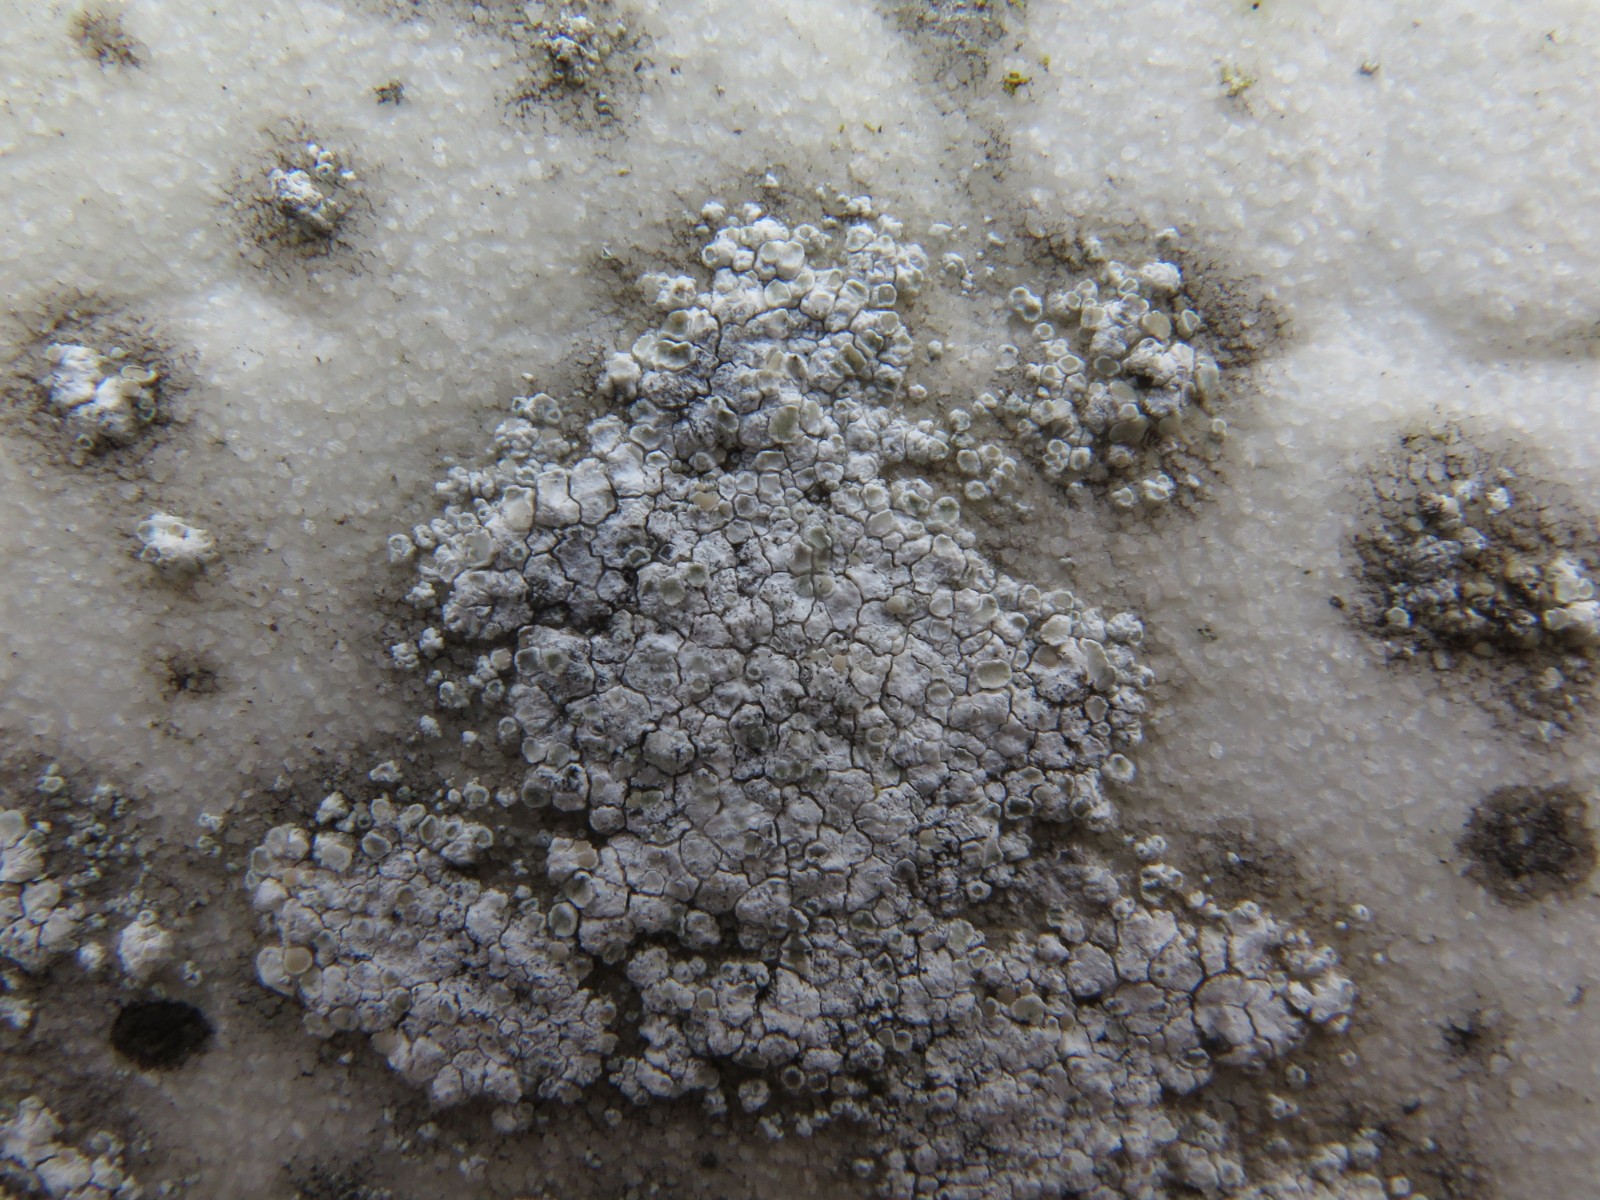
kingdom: Fungi
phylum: Ascomycota
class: Lecanoromycetes
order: Lecanorales
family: Lecanoraceae
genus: Polyozosia
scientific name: Polyozosia albescens
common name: cement-kantskivelav
